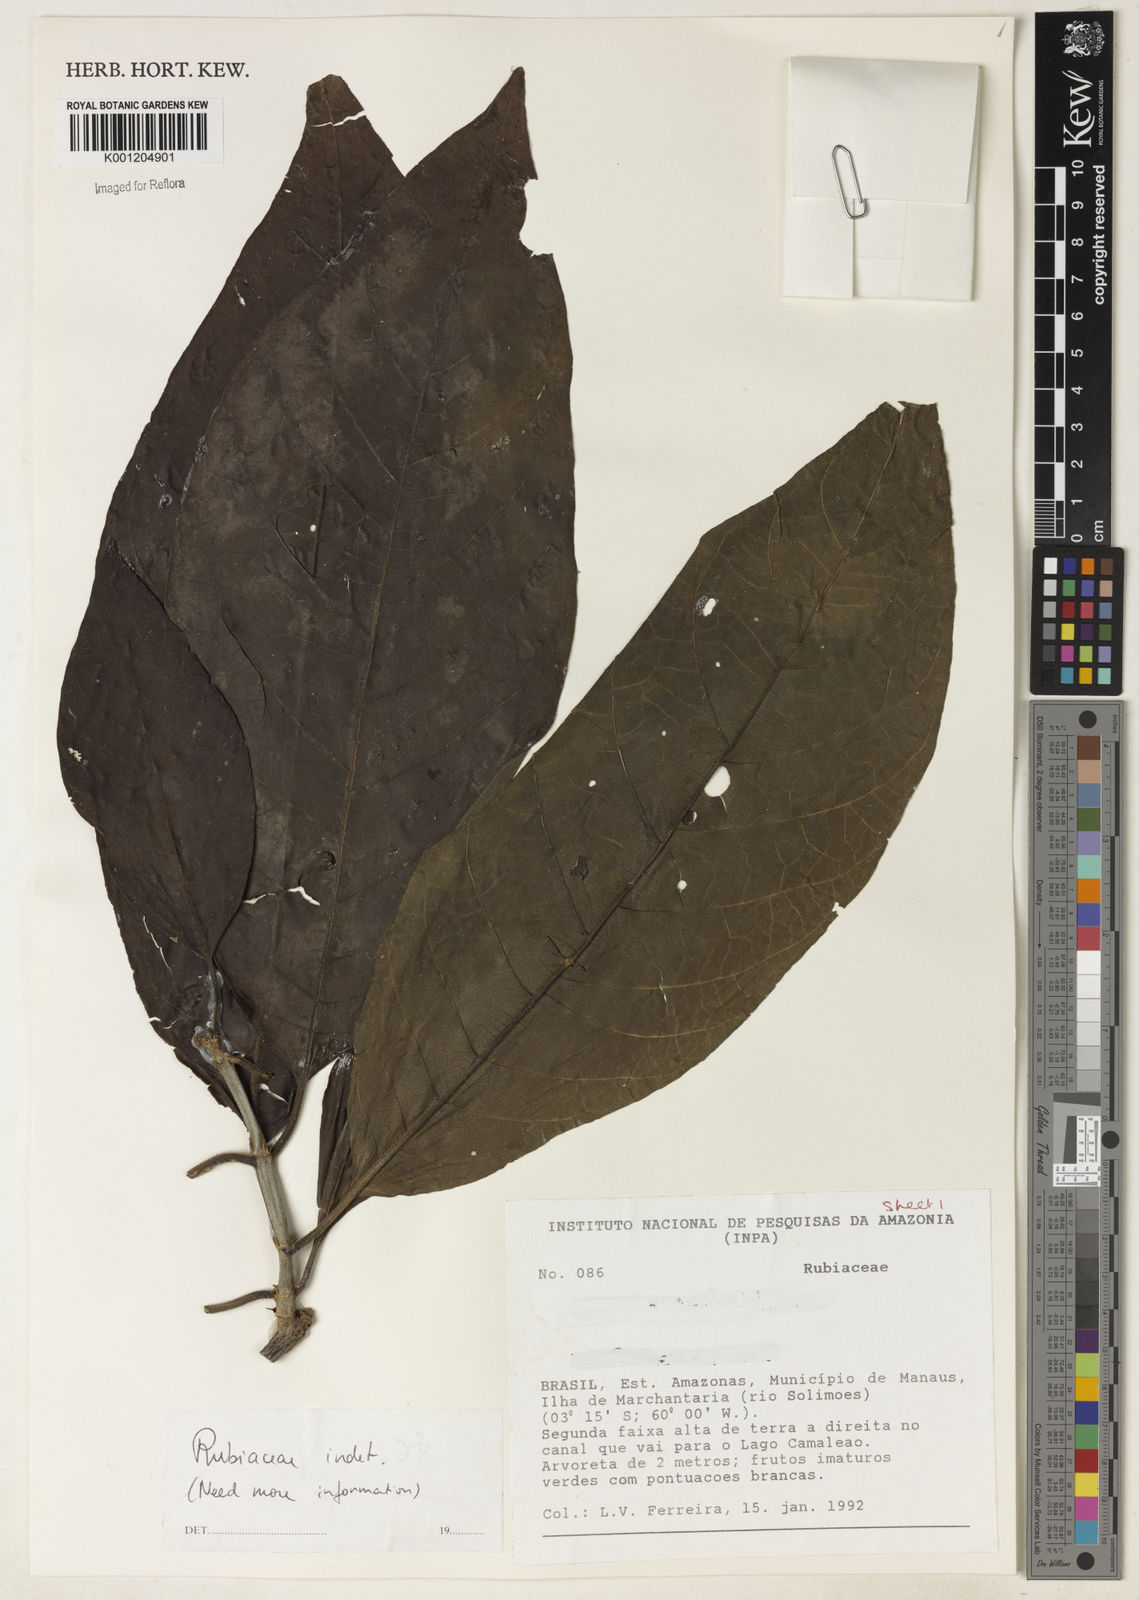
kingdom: Plantae
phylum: Tracheophyta
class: Magnoliopsida
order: Gentianales
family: Rubiaceae
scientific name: Rubiaceae
